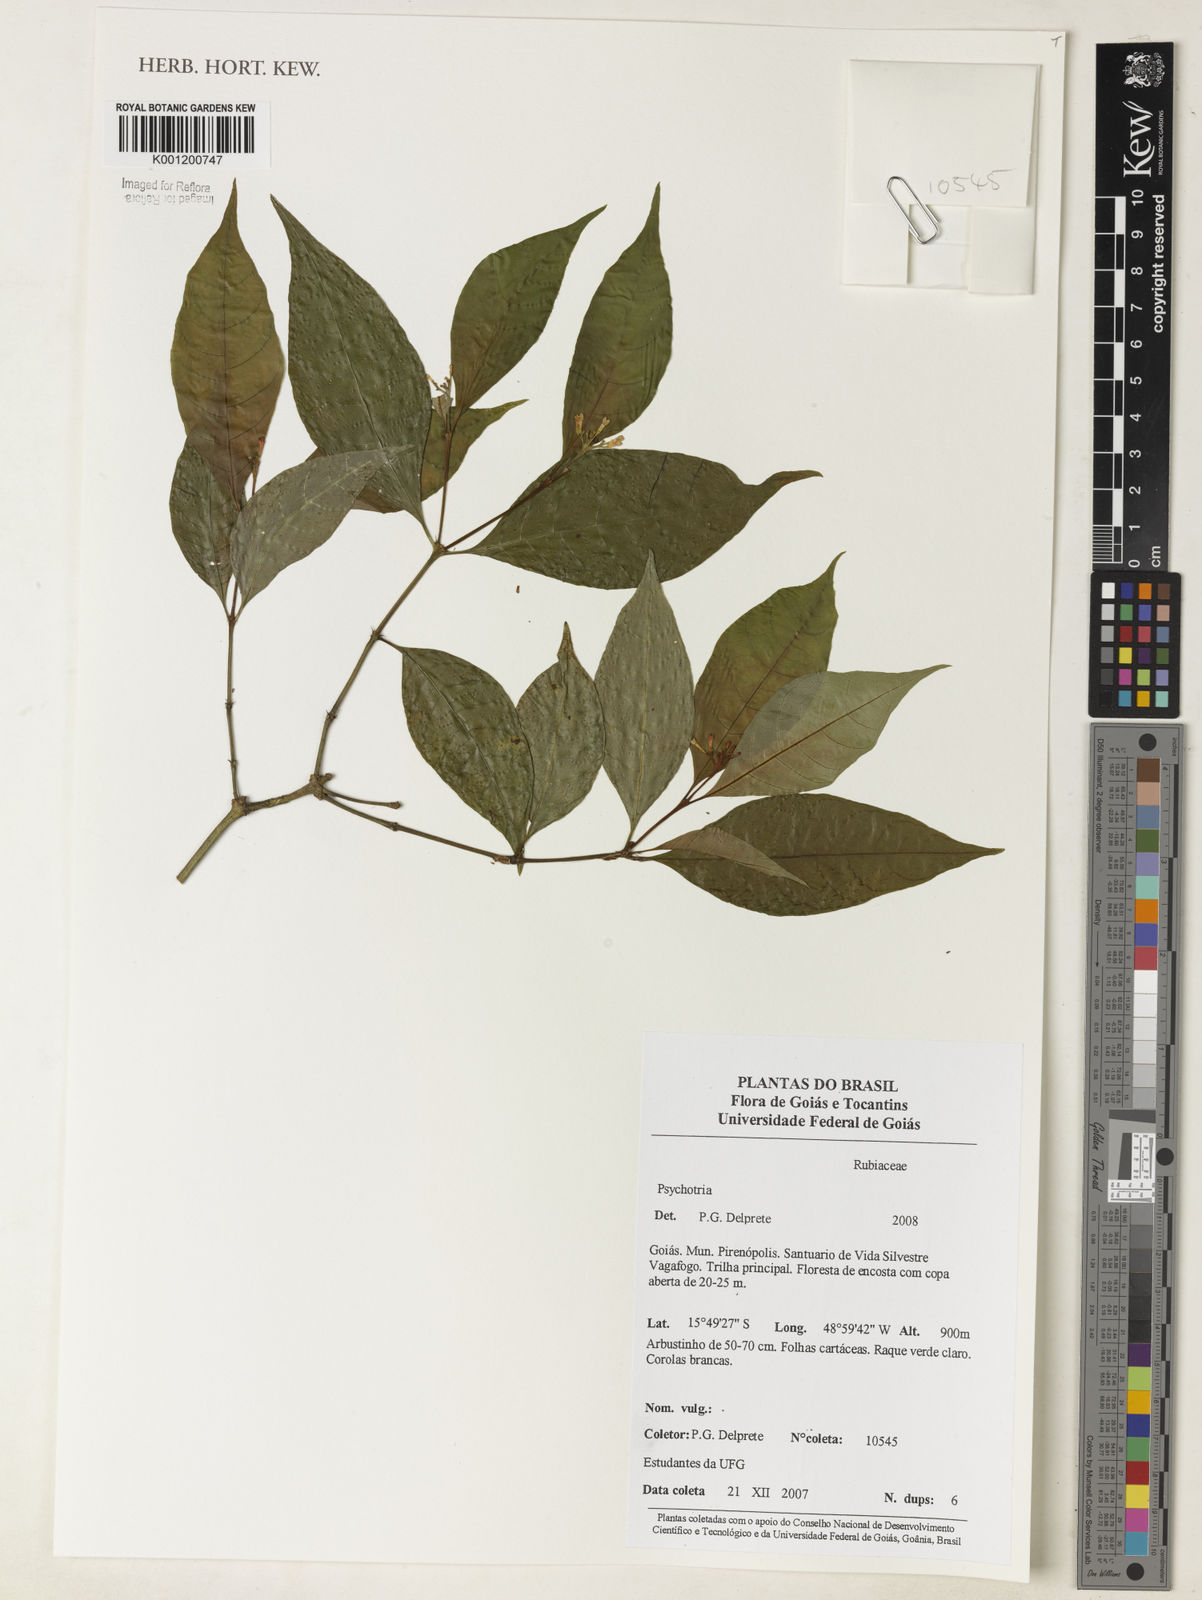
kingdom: Plantae
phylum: Tracheophyta
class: Magnoliopsida
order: Gentianales
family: Rubiaceae
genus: Psychotria
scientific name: Psychotria
